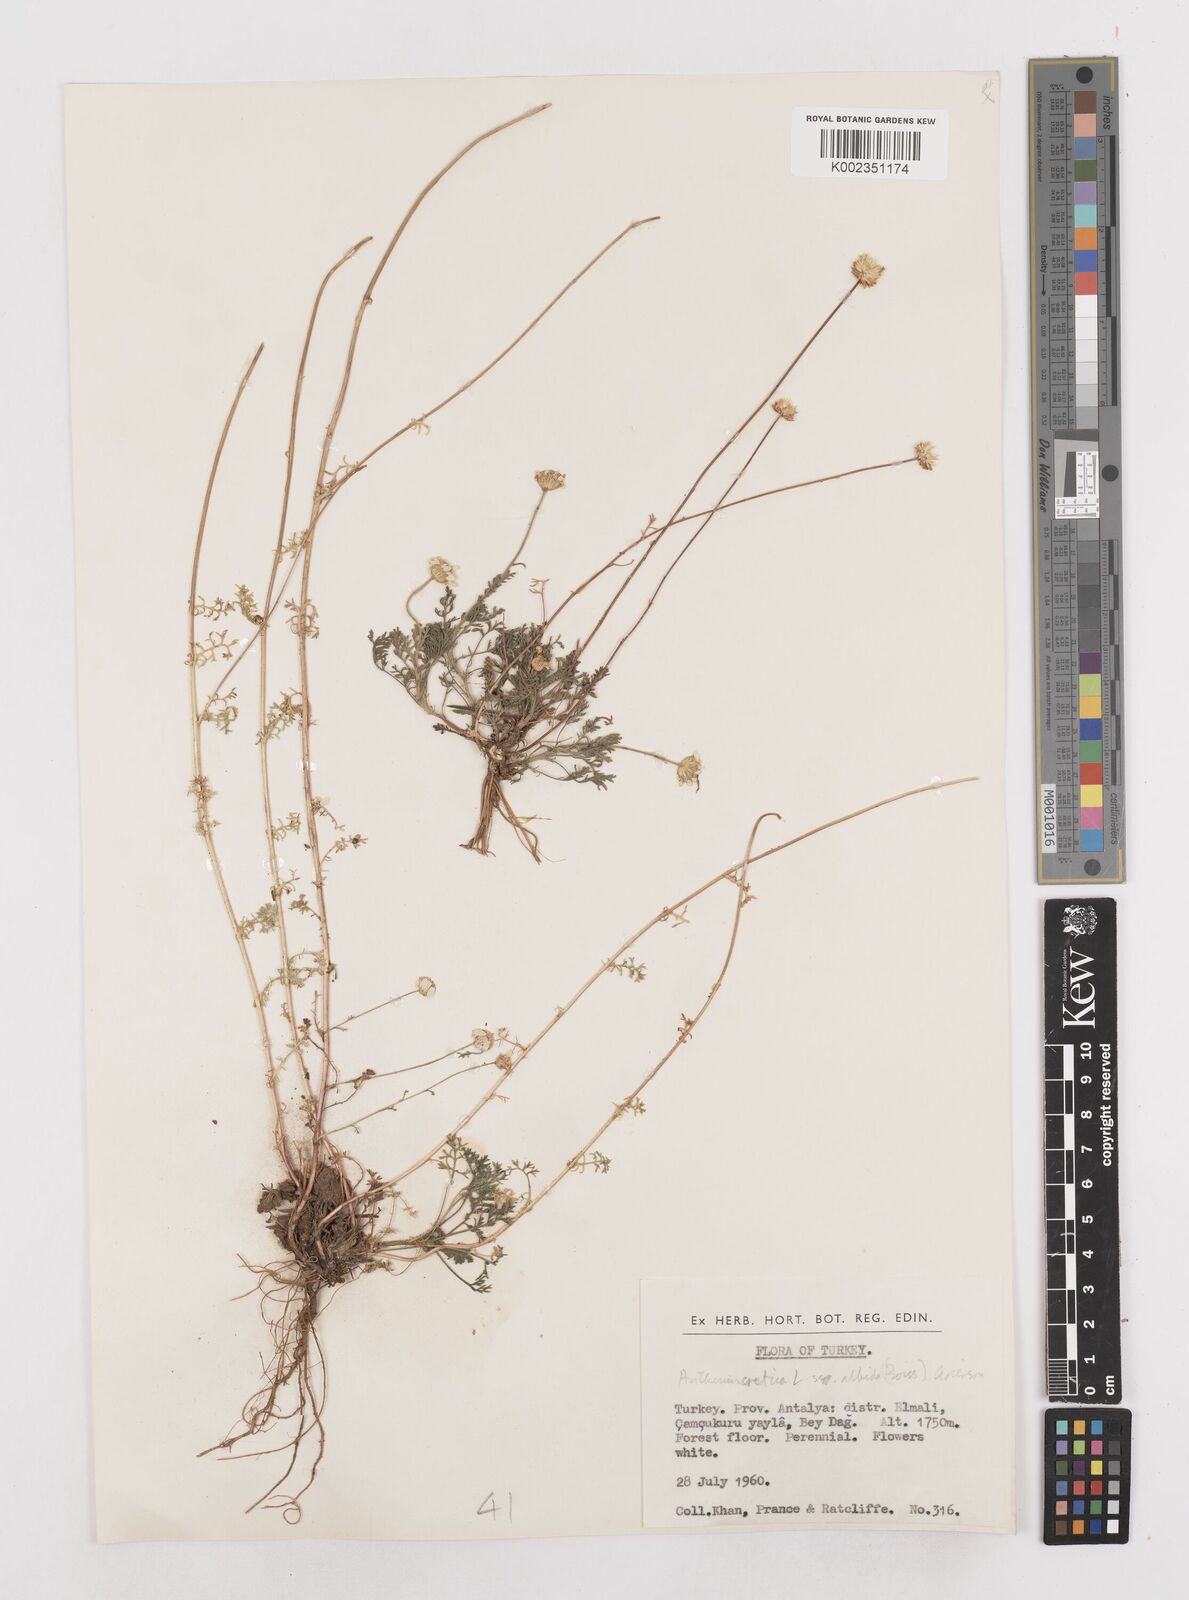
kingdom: Plantae
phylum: Tracheophyta
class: Magnoliopsida
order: Asterales
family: Asteraceae
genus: Anthemis
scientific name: Anthemis cretica
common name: Mountain dog-daisy
